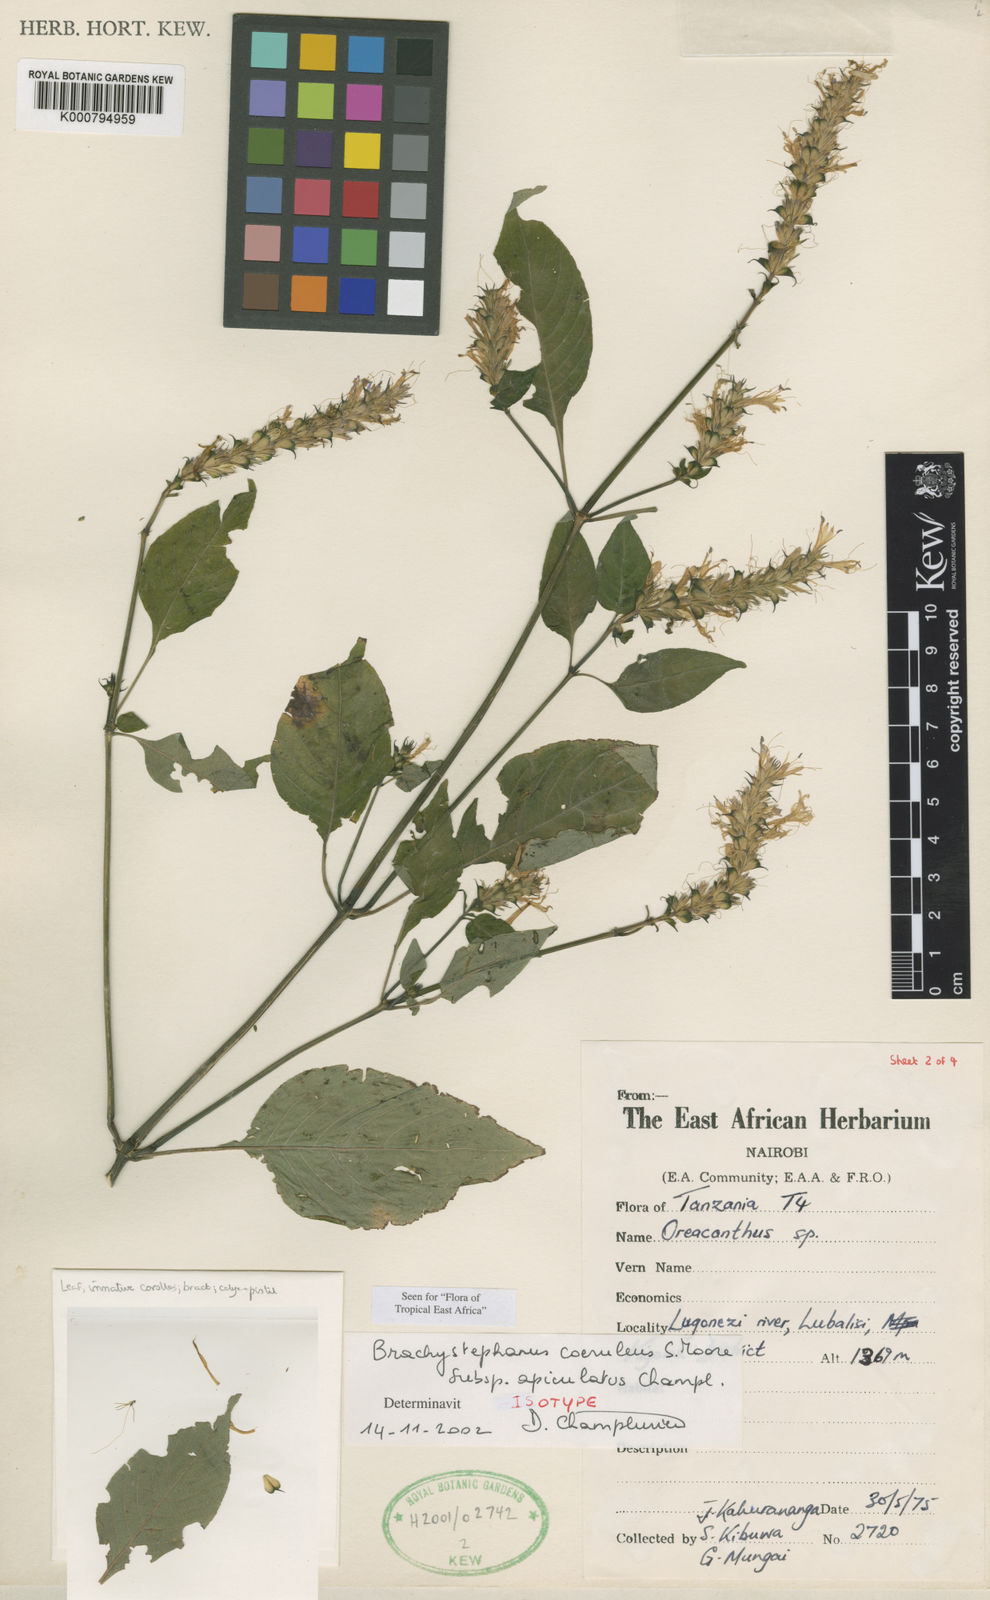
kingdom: Plantae
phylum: Tracheophyta
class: Magnoliopsida
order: Lamiales
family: Acanthaceae
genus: Brachystephanus
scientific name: Brachystephanus coeruleus
